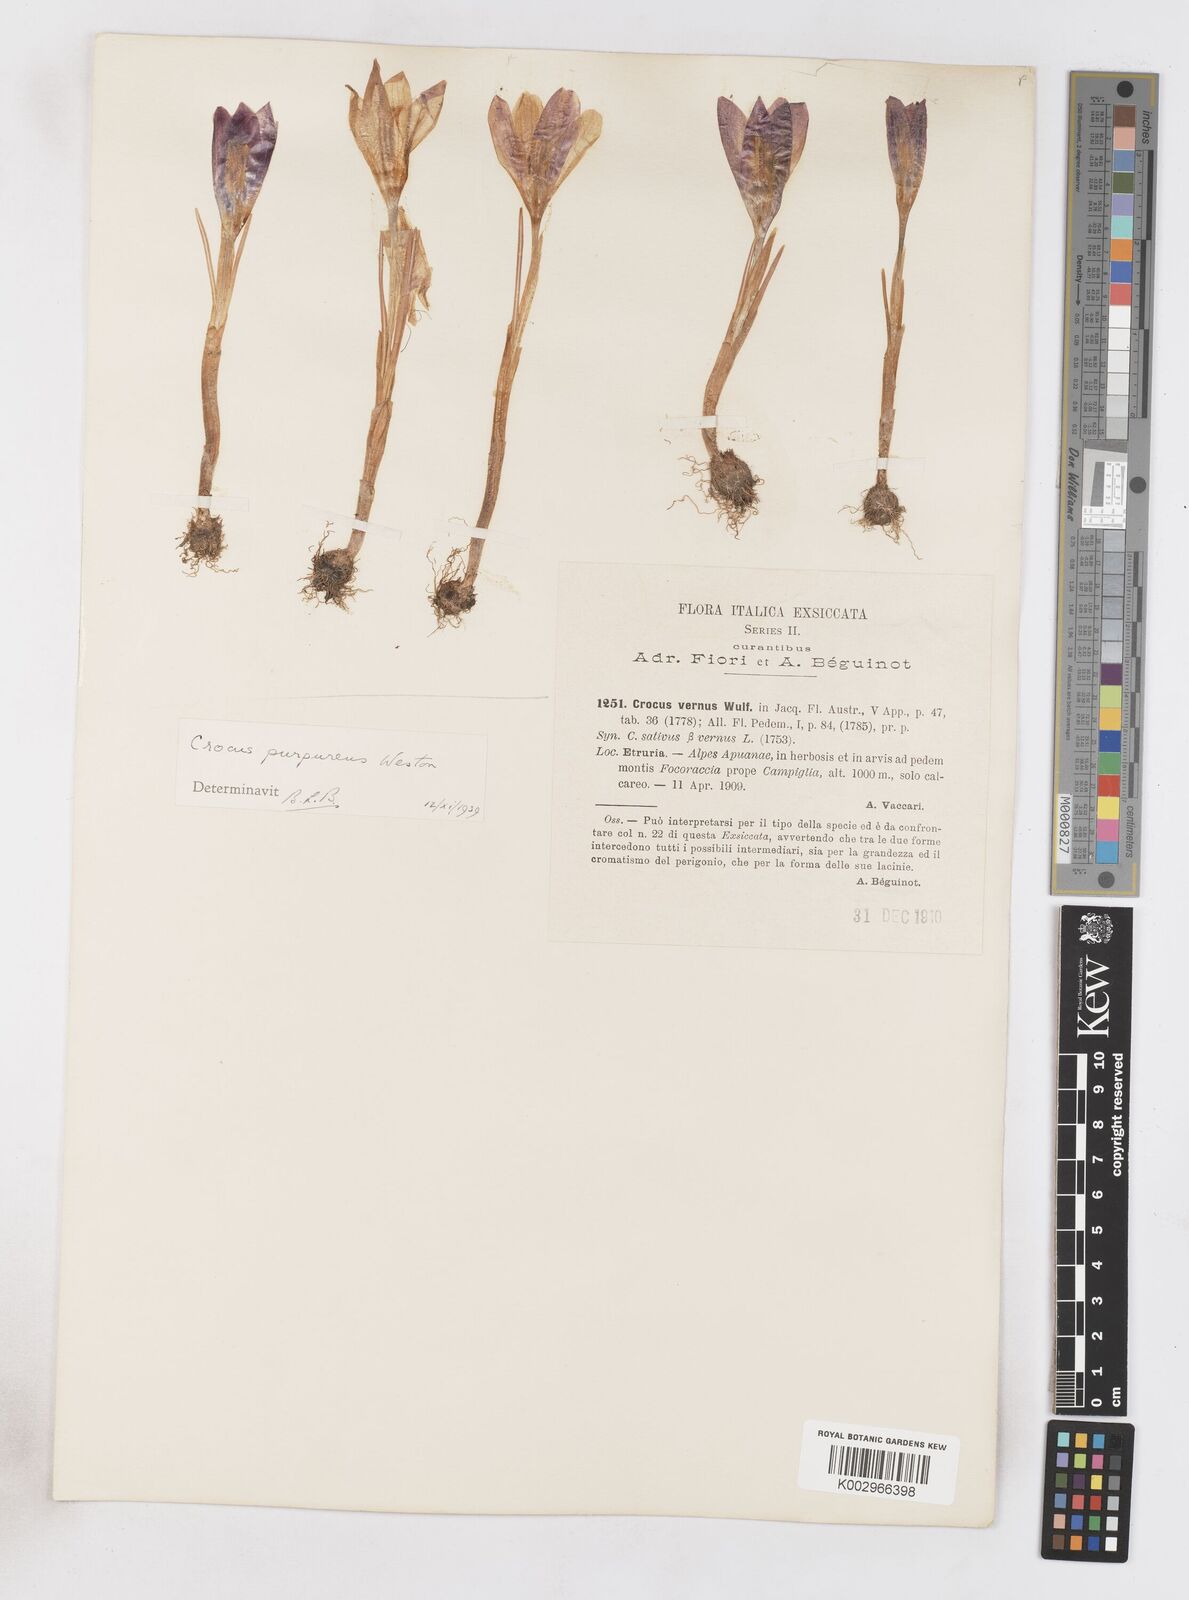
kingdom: Plantae
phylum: Tracheophyta
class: Liliopsida
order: Asparagales
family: Iridaceae
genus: Crocus
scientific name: Crocus vernus
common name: Spring crocus
